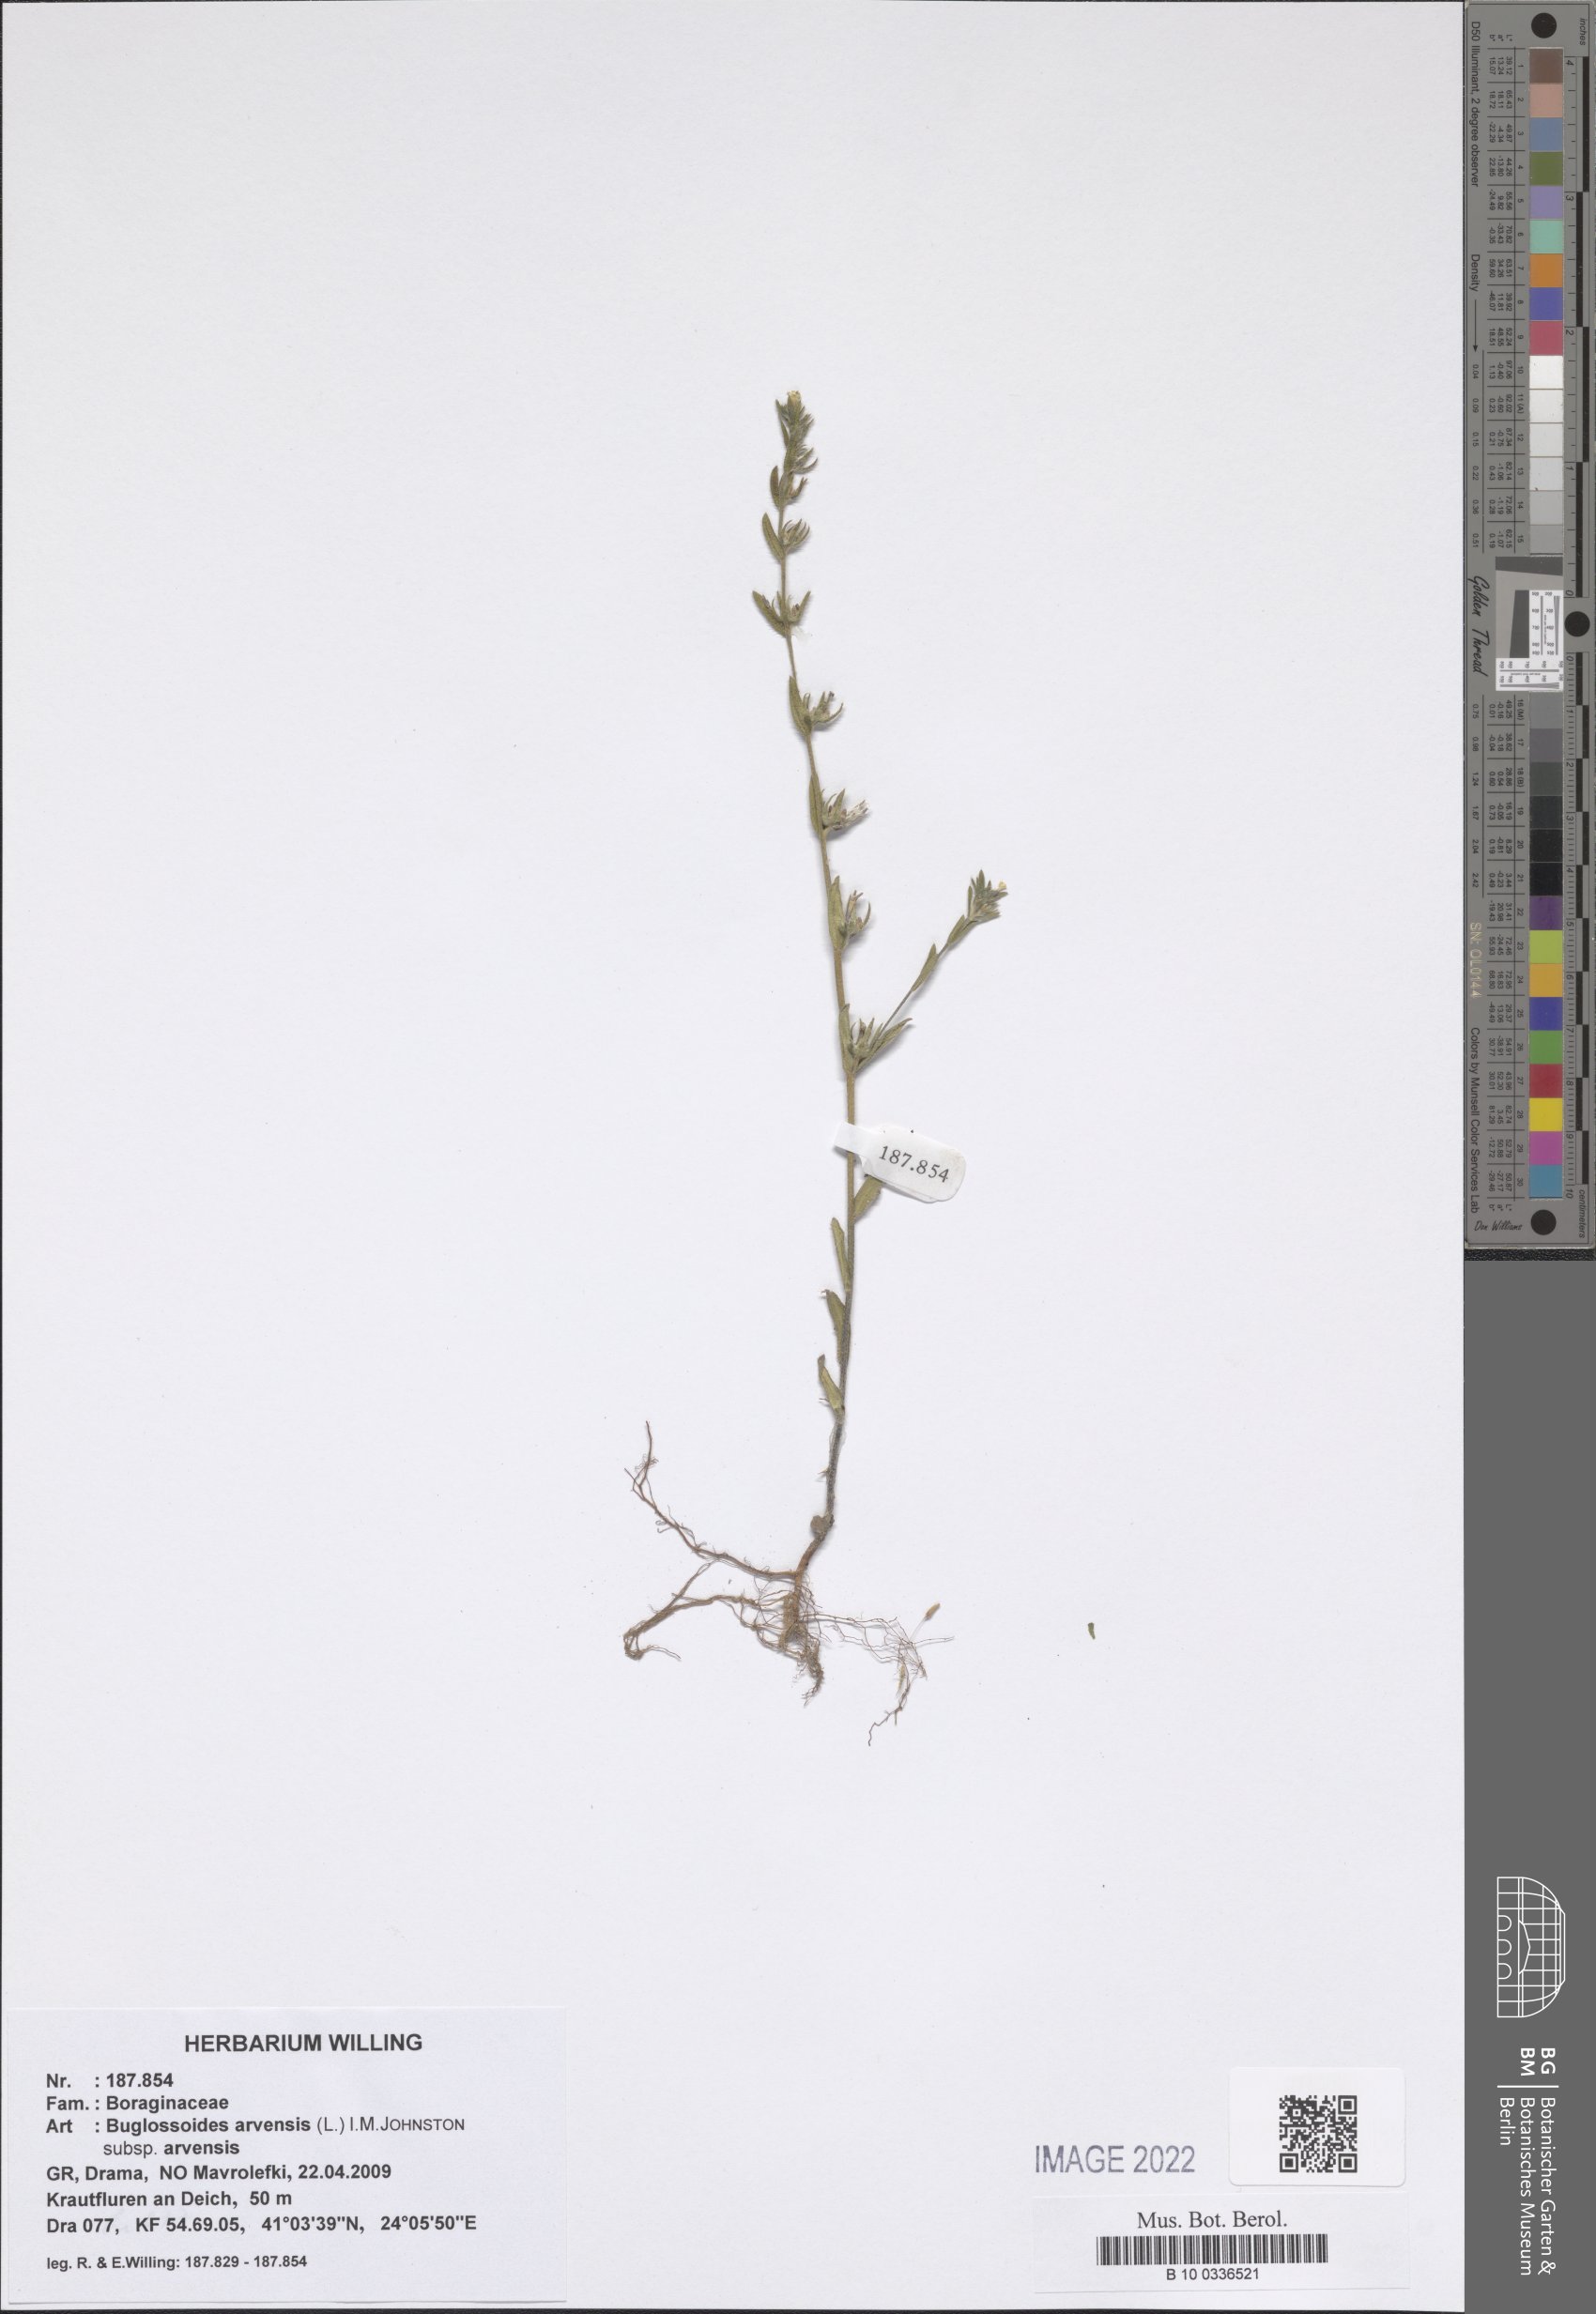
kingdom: Plantae
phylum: Tracheophyta
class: Magnoliopsida
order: Boraginales
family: Boraginaceae
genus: Buglossoides
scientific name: Buglossoides arvensis
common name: Corn gromwell
